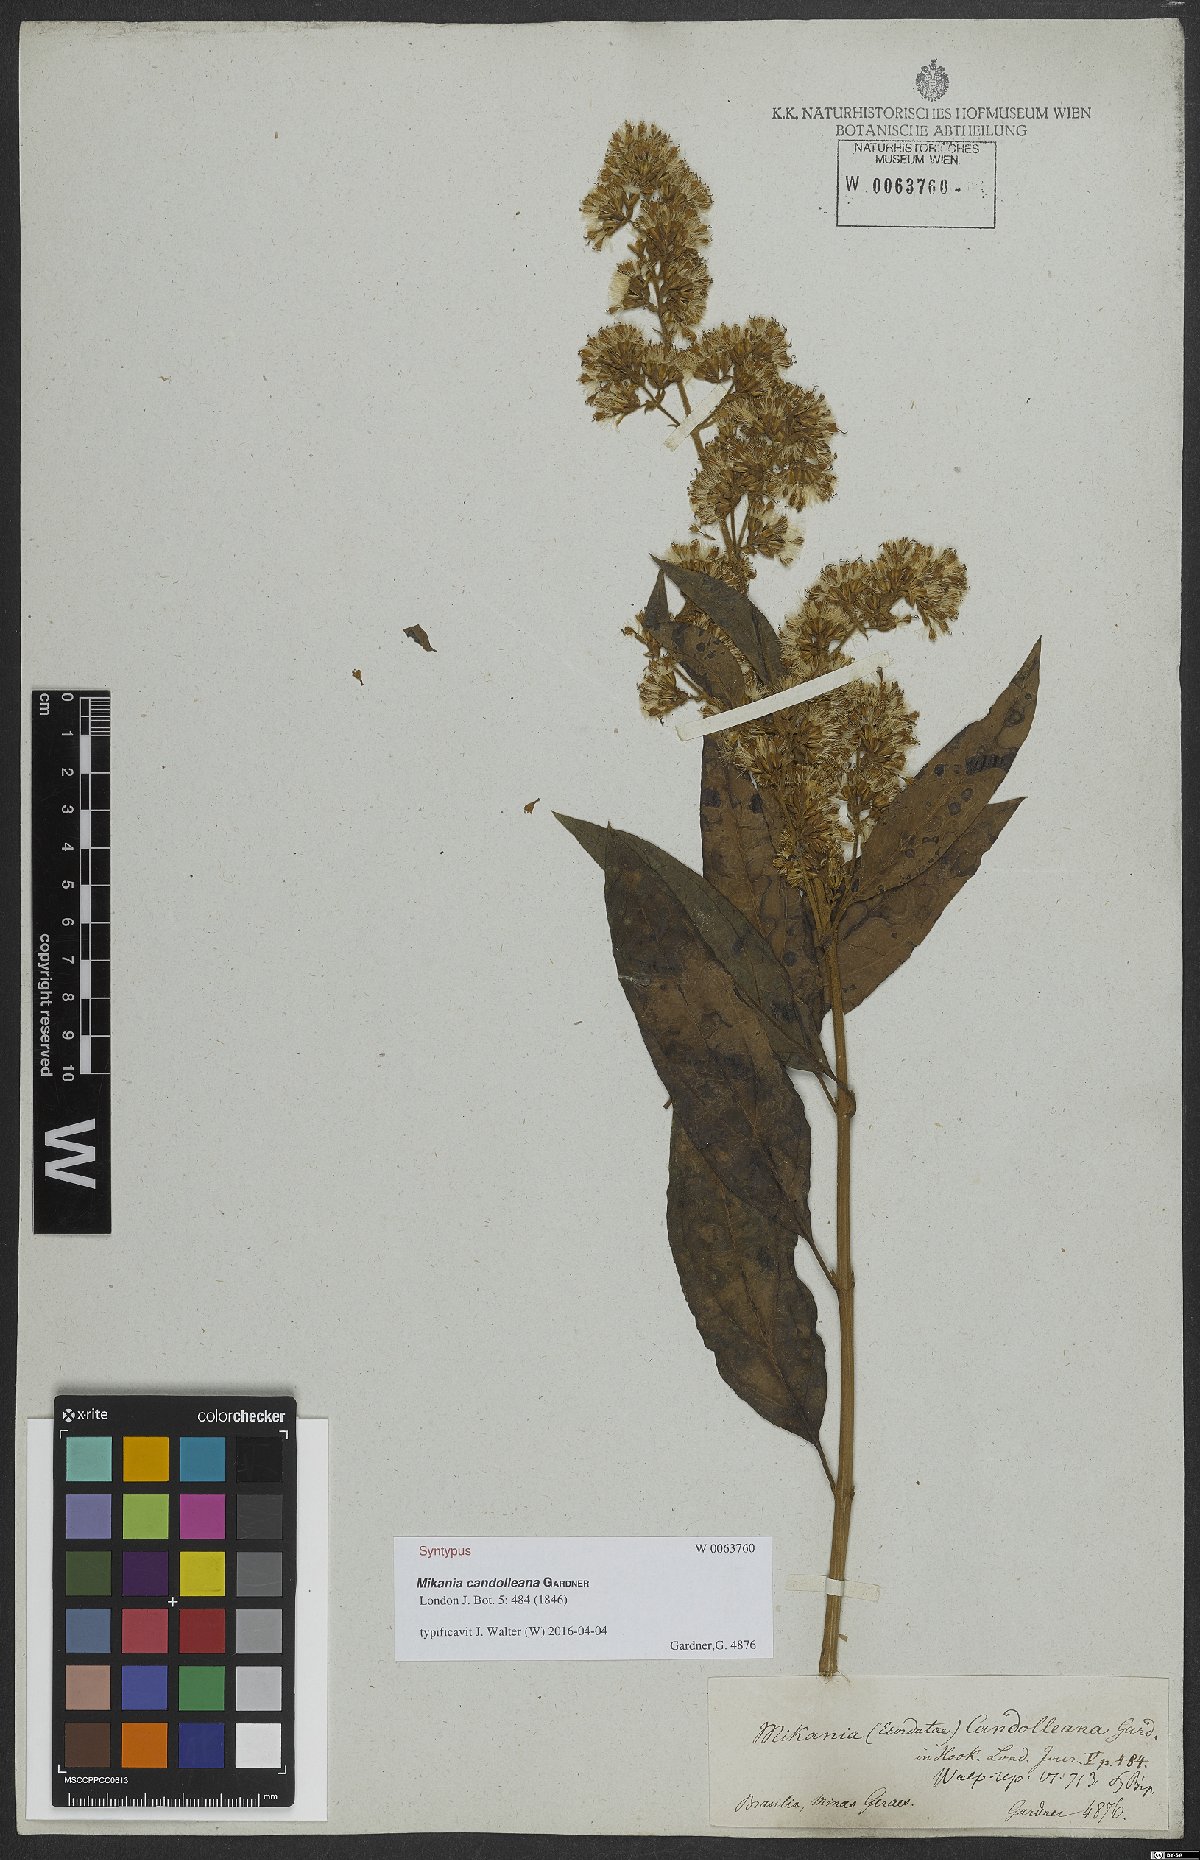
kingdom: Plantae
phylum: Tracheophyta
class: Magnoliopsida
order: Asterales
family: Asteraceae
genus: Mikania
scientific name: Mikania candolleana
